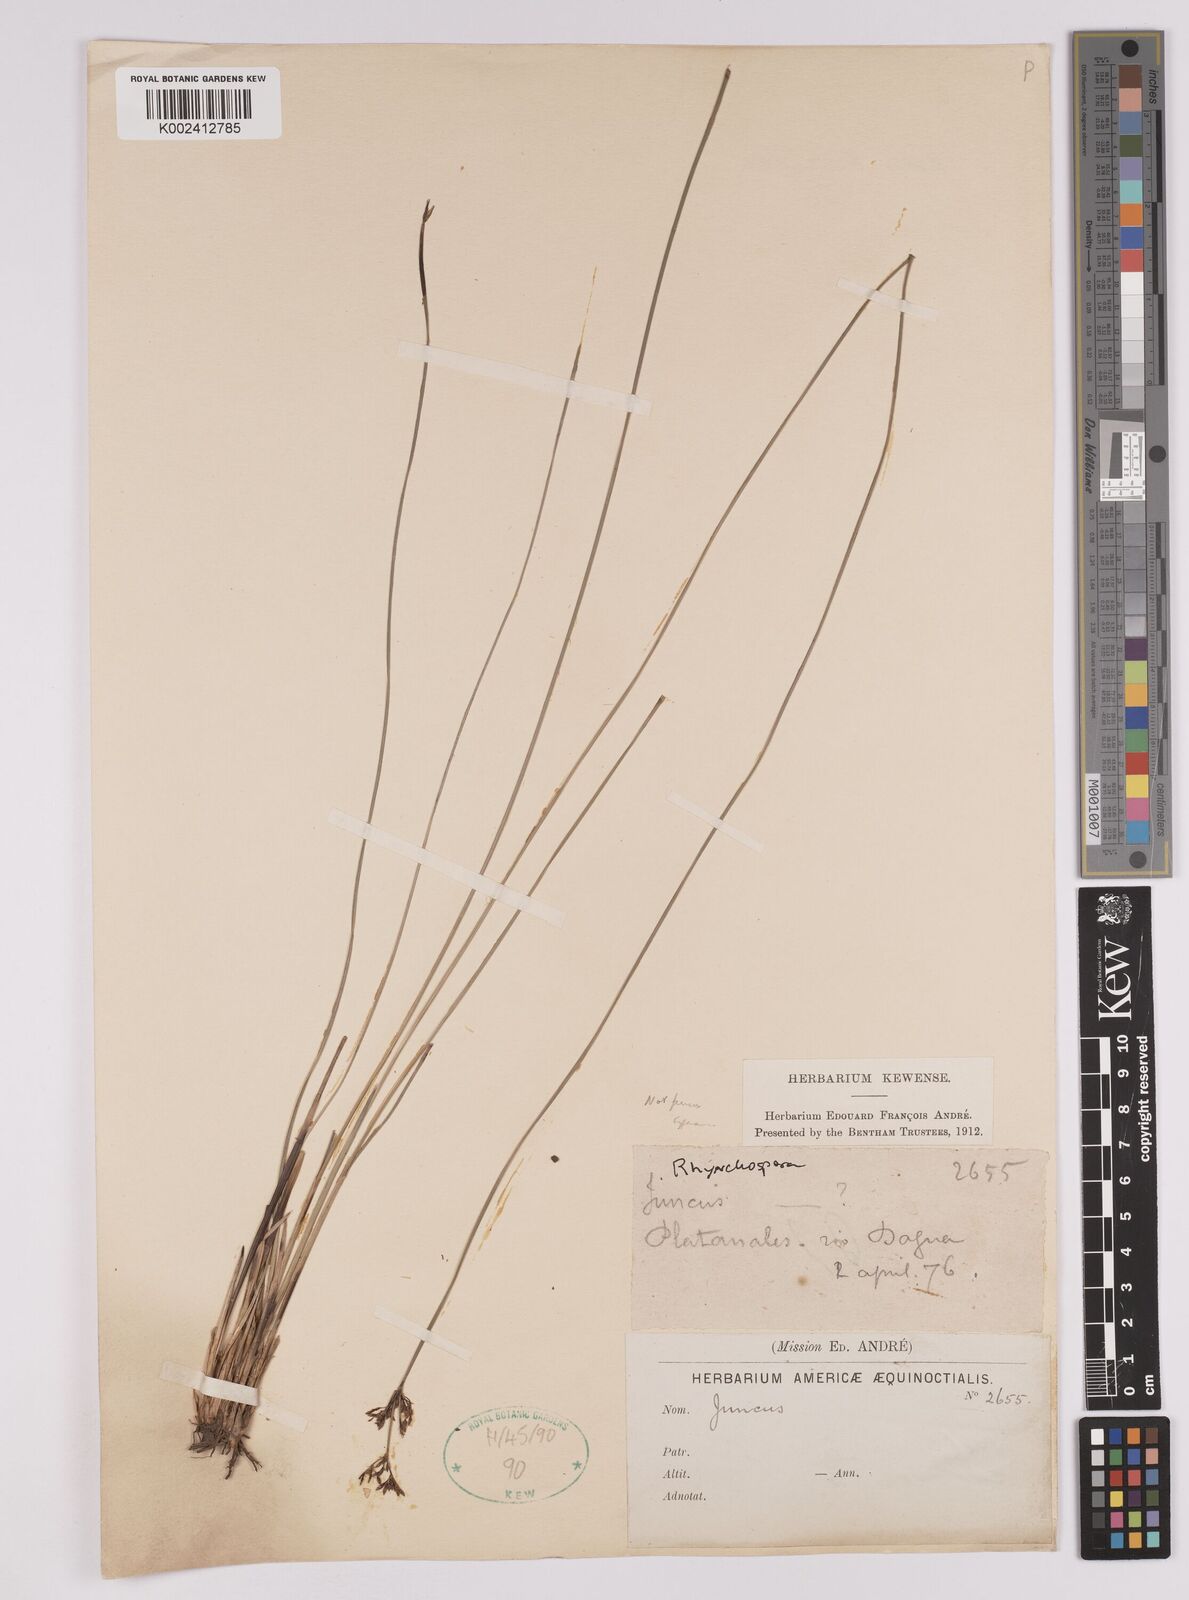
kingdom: Plantae
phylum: Tracheophyta
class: Liliopsida
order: Poales
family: Cyperaceae
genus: Rhynchospora
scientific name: Rhynchospora
